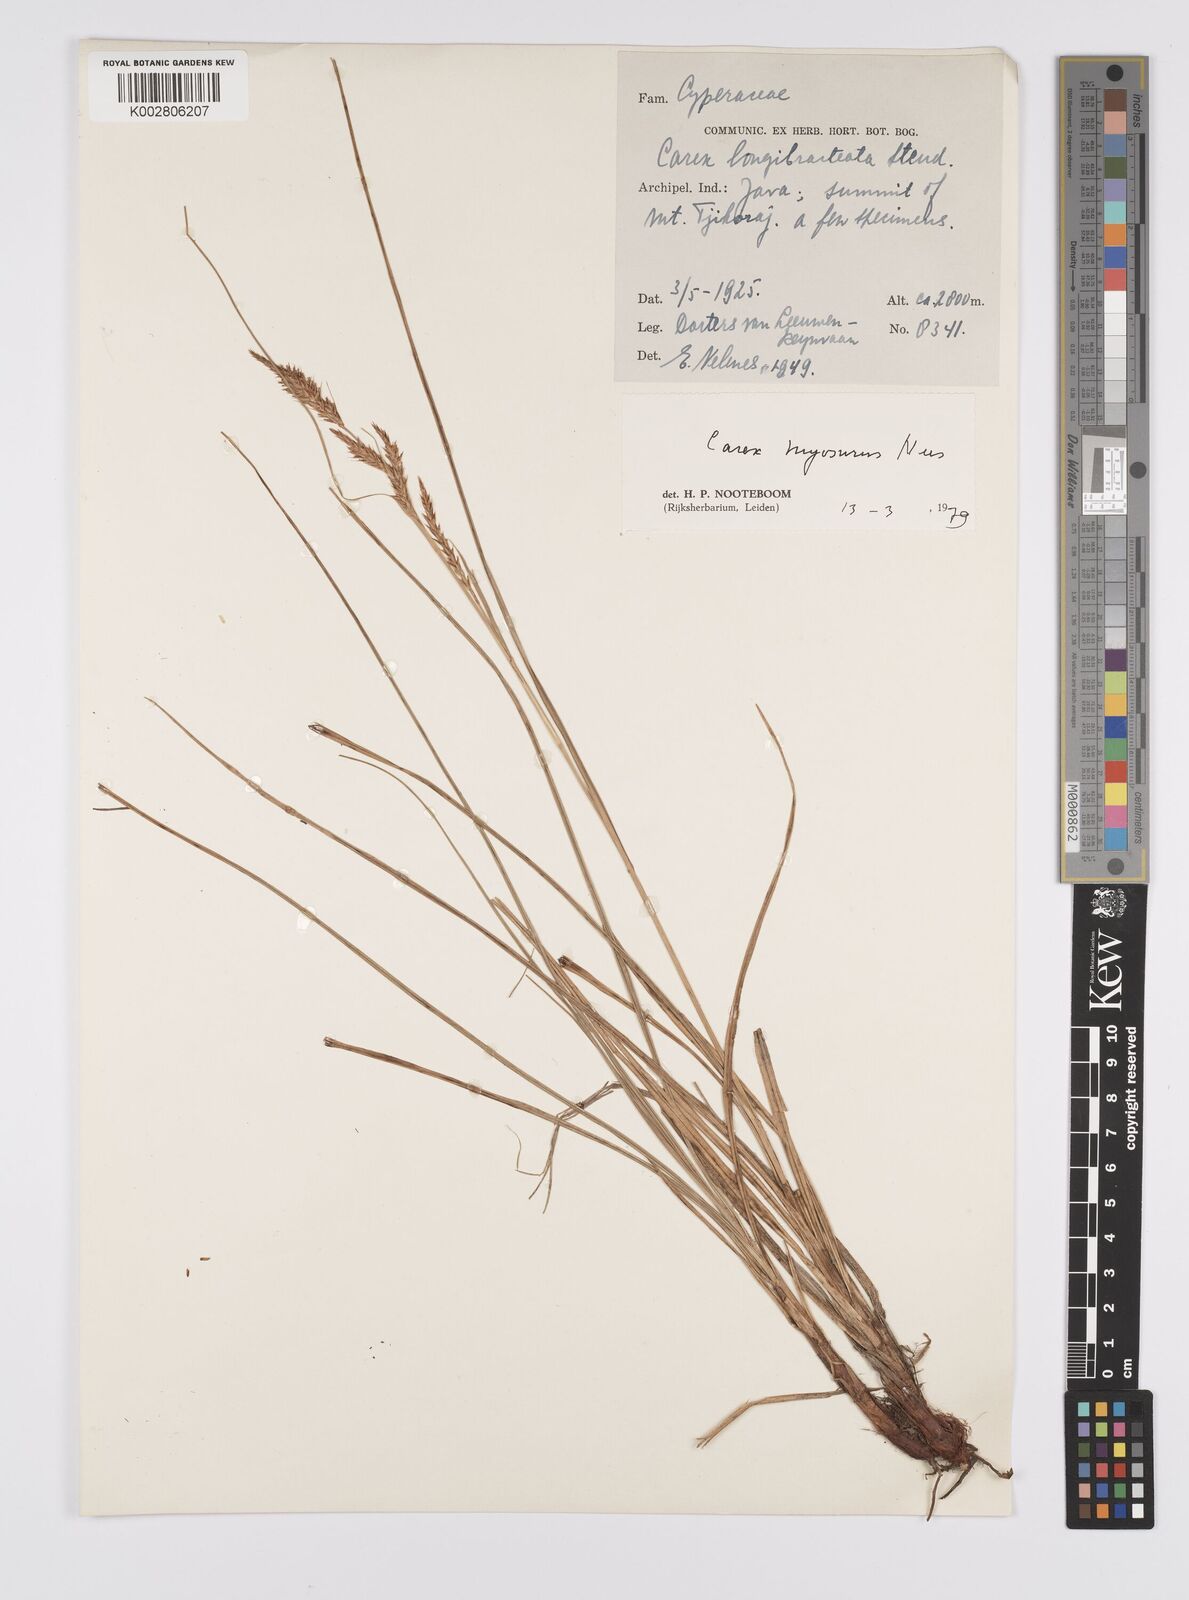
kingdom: Plantae
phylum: Tracheophyta
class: Liliopsida
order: Poales
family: Cyperaceae
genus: Carex
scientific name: Carex myosurus
